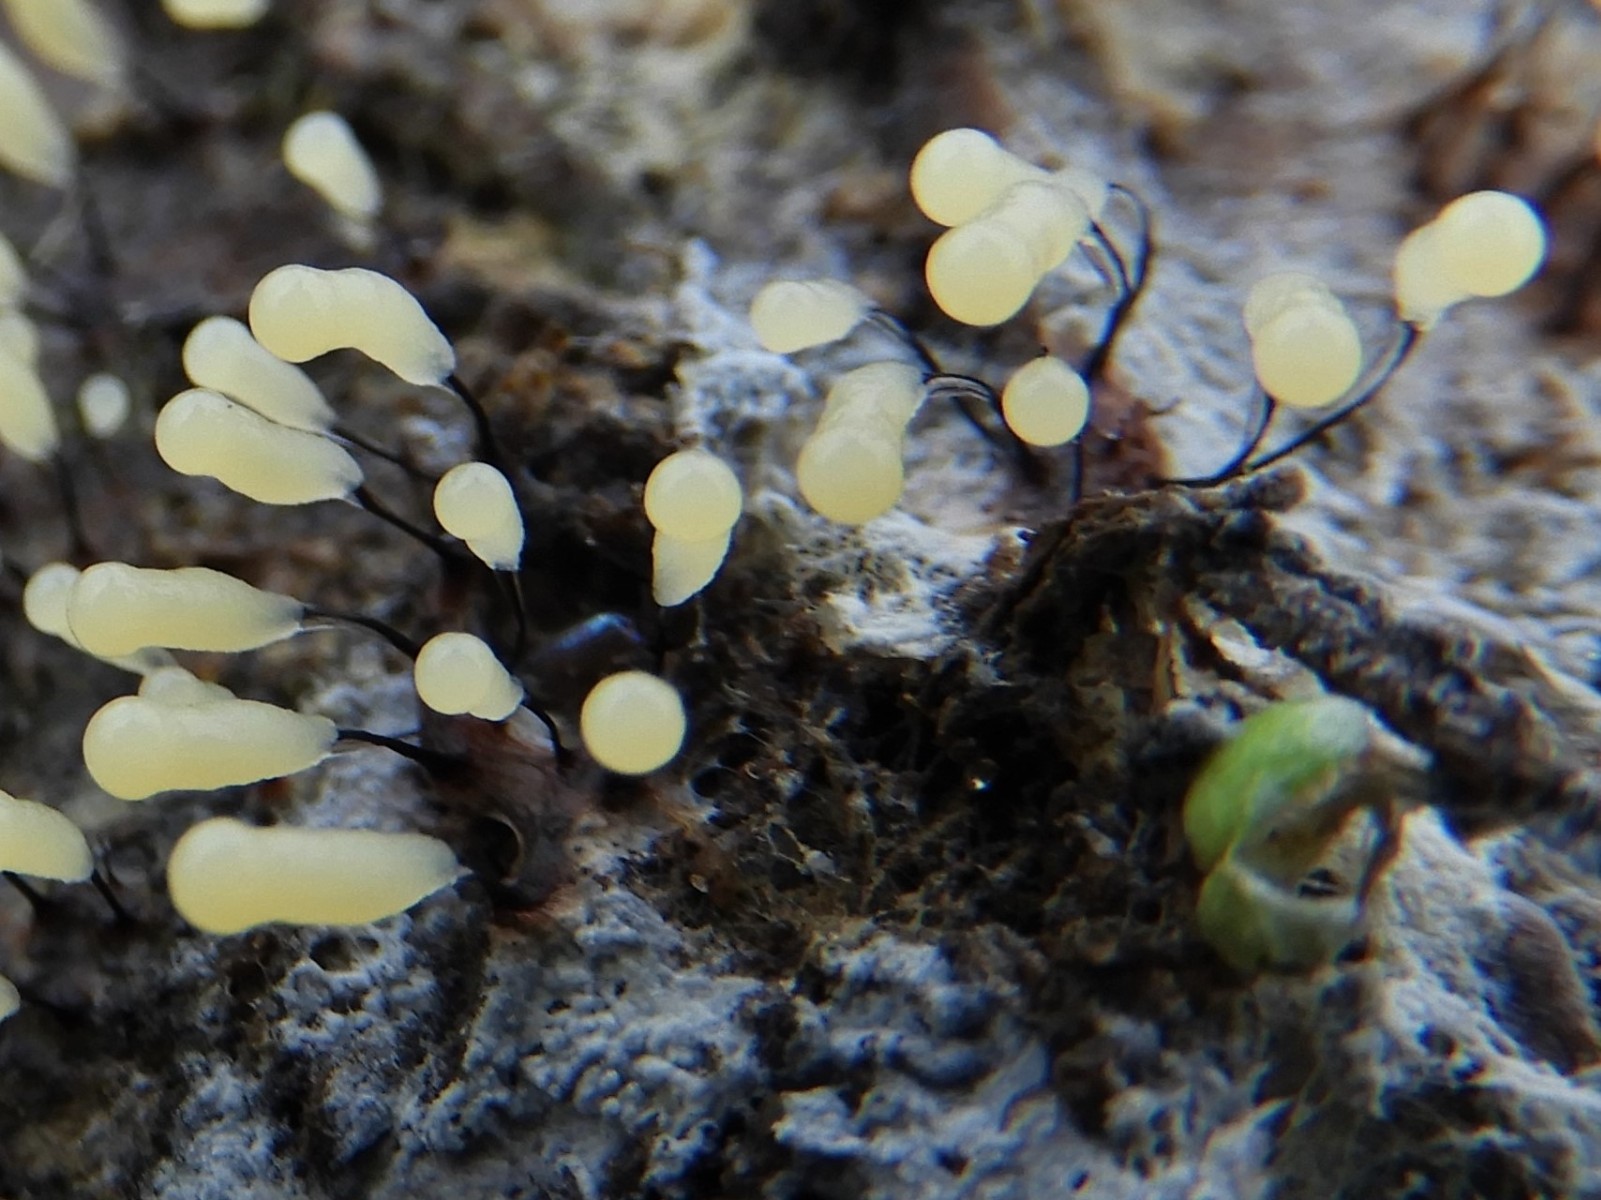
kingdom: Protozoa
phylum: Mycetozoa
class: Myxomycetes
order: Stemonitidales
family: Stemonitidaceae
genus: Stemonitopsis
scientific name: Stemonitopsis
